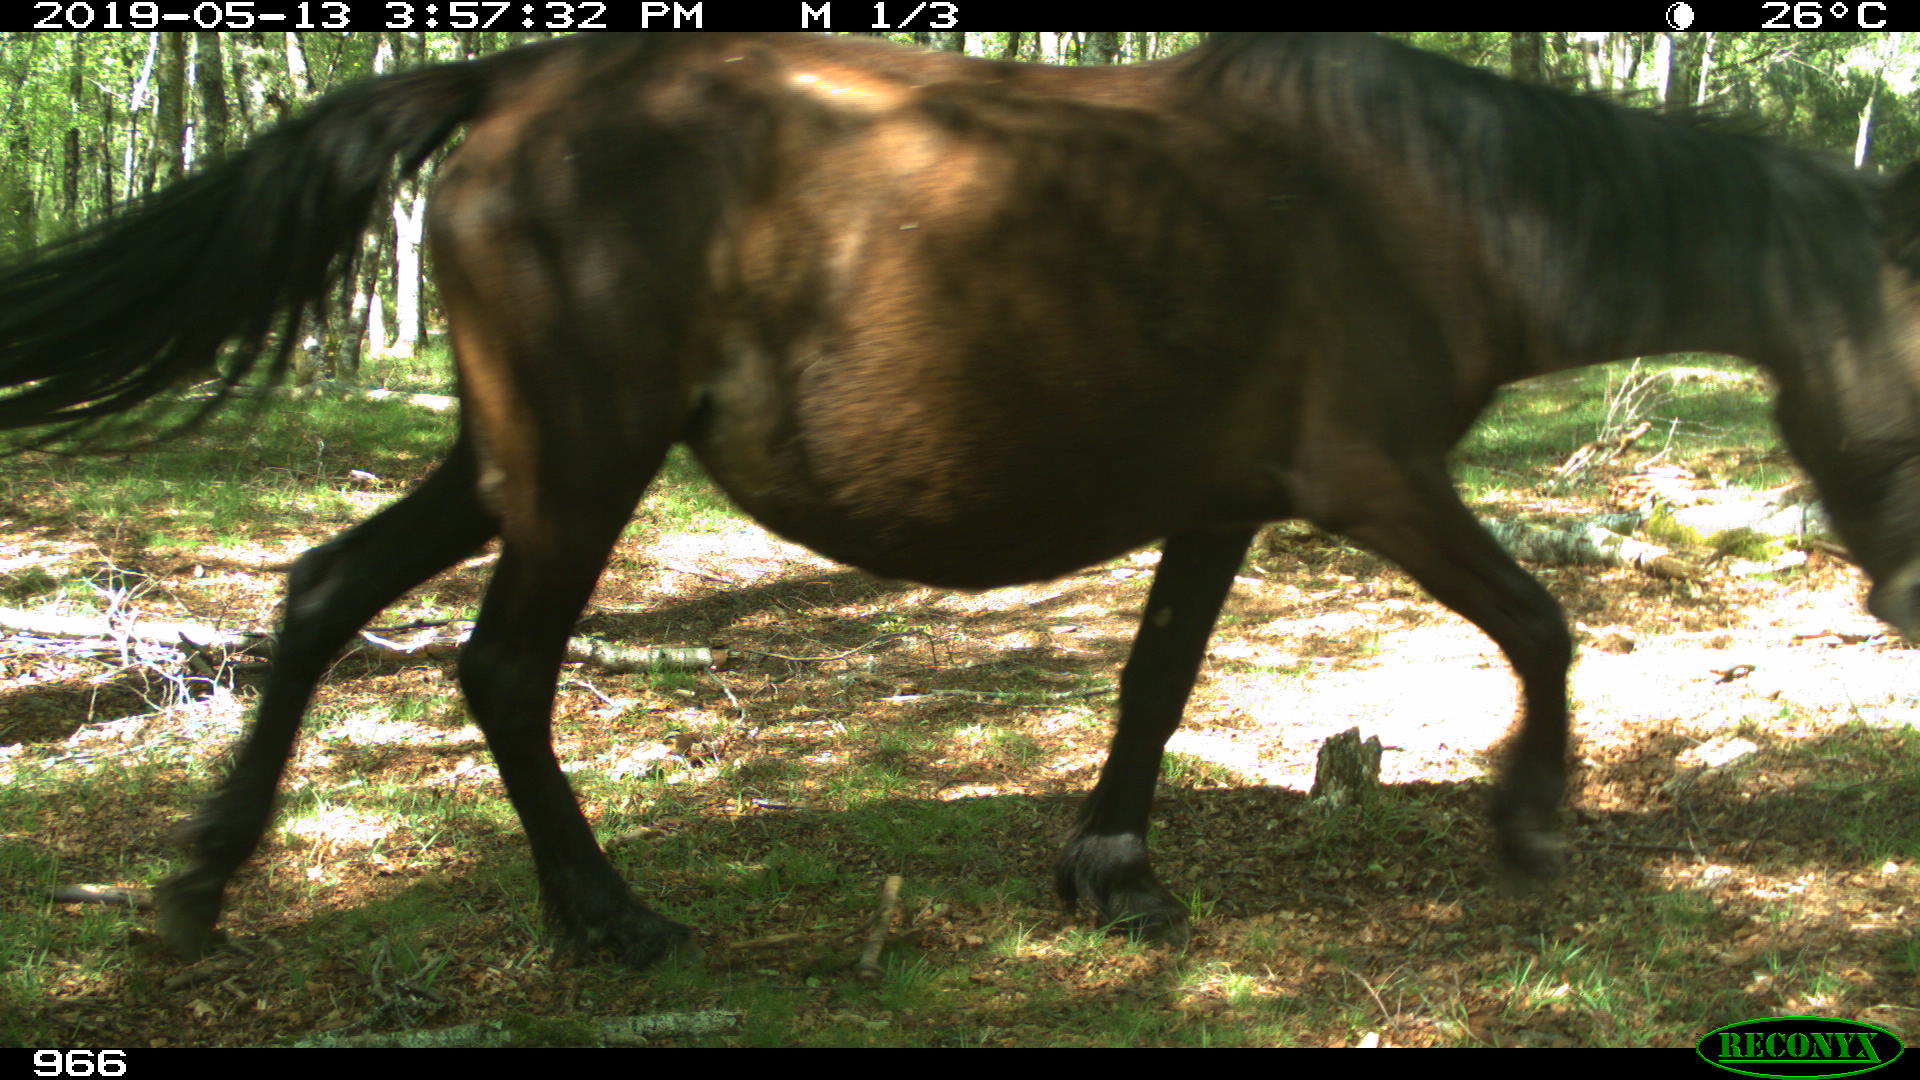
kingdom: Animalia
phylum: Chordata
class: Mammalia
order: Perissodactyla
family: Equidae
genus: Equus
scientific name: Equus caballus
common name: Horse
